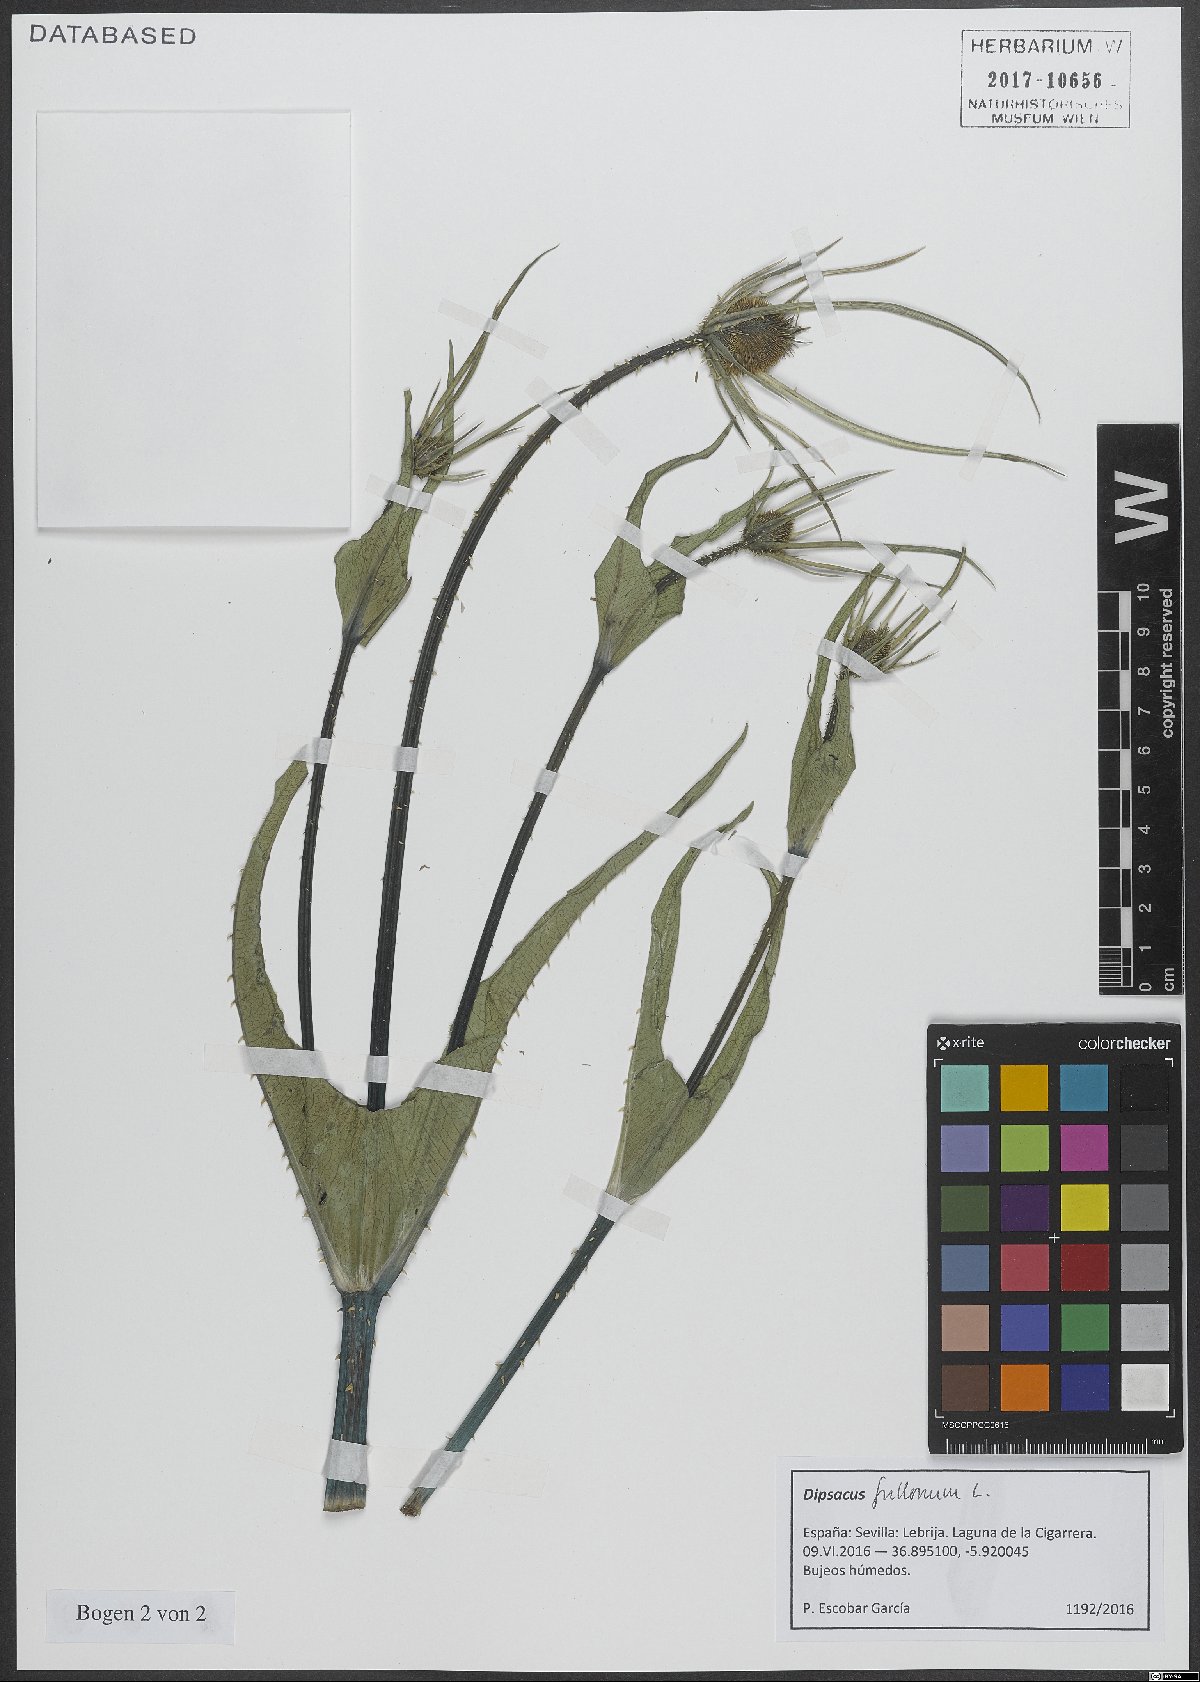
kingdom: Plantae
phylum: Tracheophyta
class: Magnoliopsida
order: Dipsacales
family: Caprifoliaceae
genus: Dipsacus
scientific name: Dipsacus fullonum
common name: Teasel
